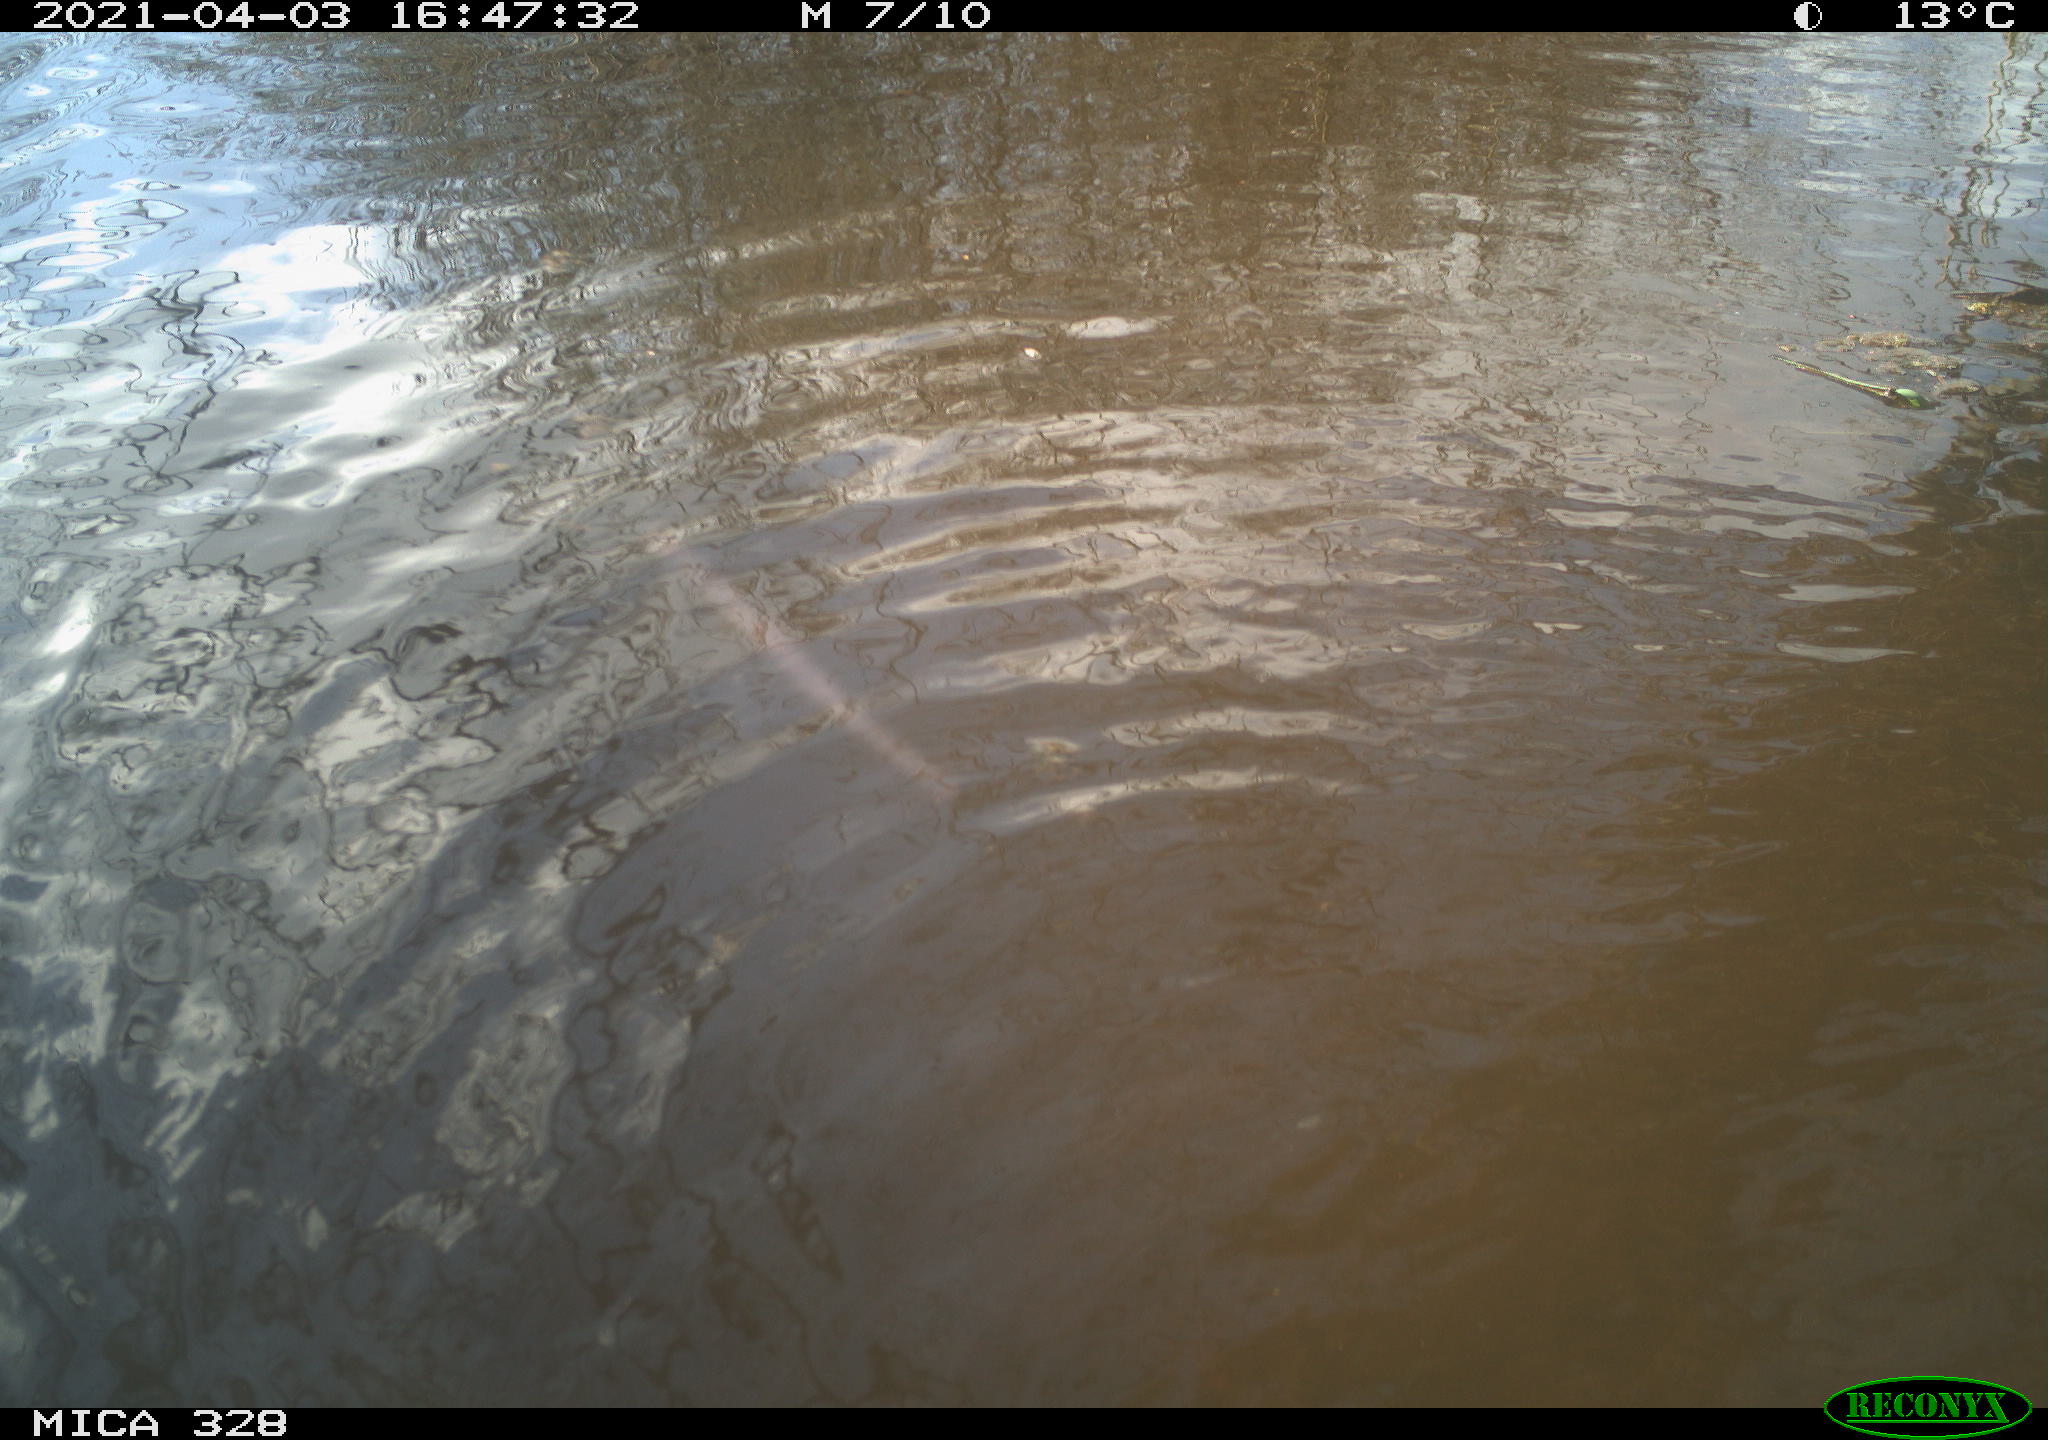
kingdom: Animalia
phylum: Chordata
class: Mammalia
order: Rodentia
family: Cricetidae
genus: Ondatra
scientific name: Ondatra zibethicus
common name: Muskrat
